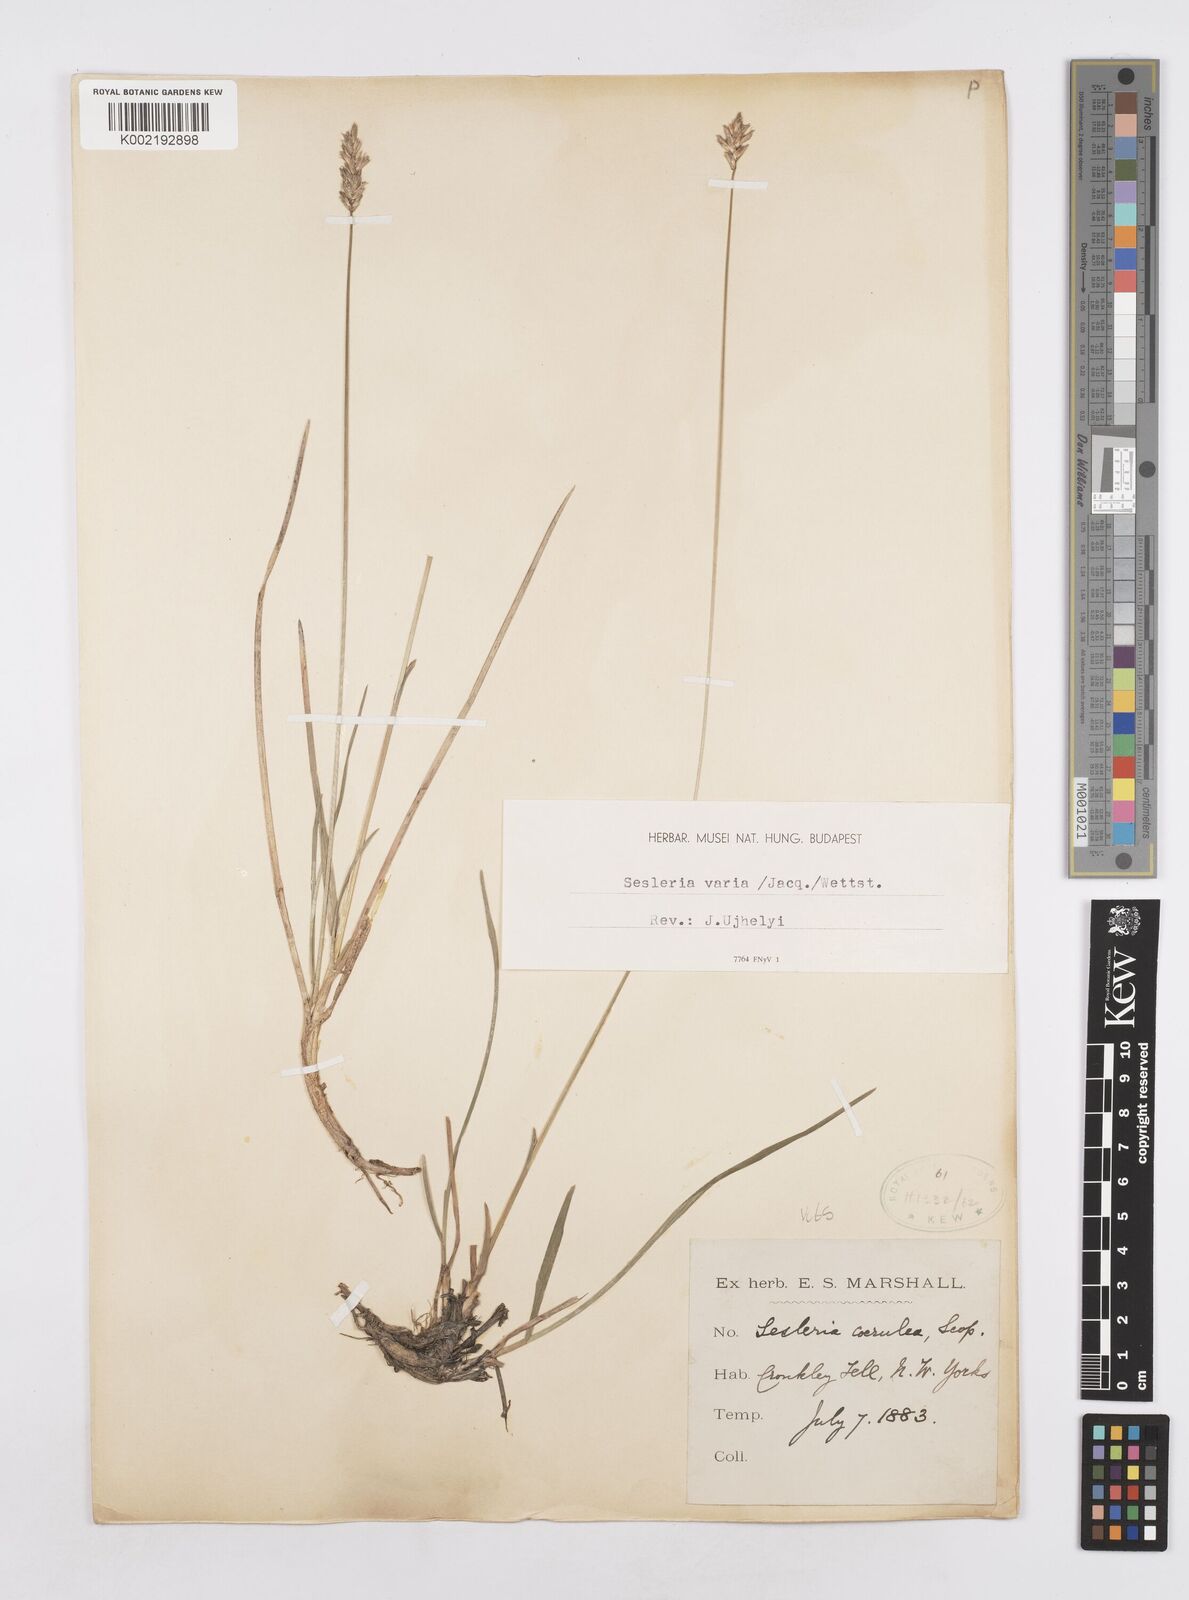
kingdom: Plantae
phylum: Tracheophyta
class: Liliopsida
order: Poales
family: Poaceae
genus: Sesleria
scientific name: Sesleria caerulea
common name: Blue moor-grass
